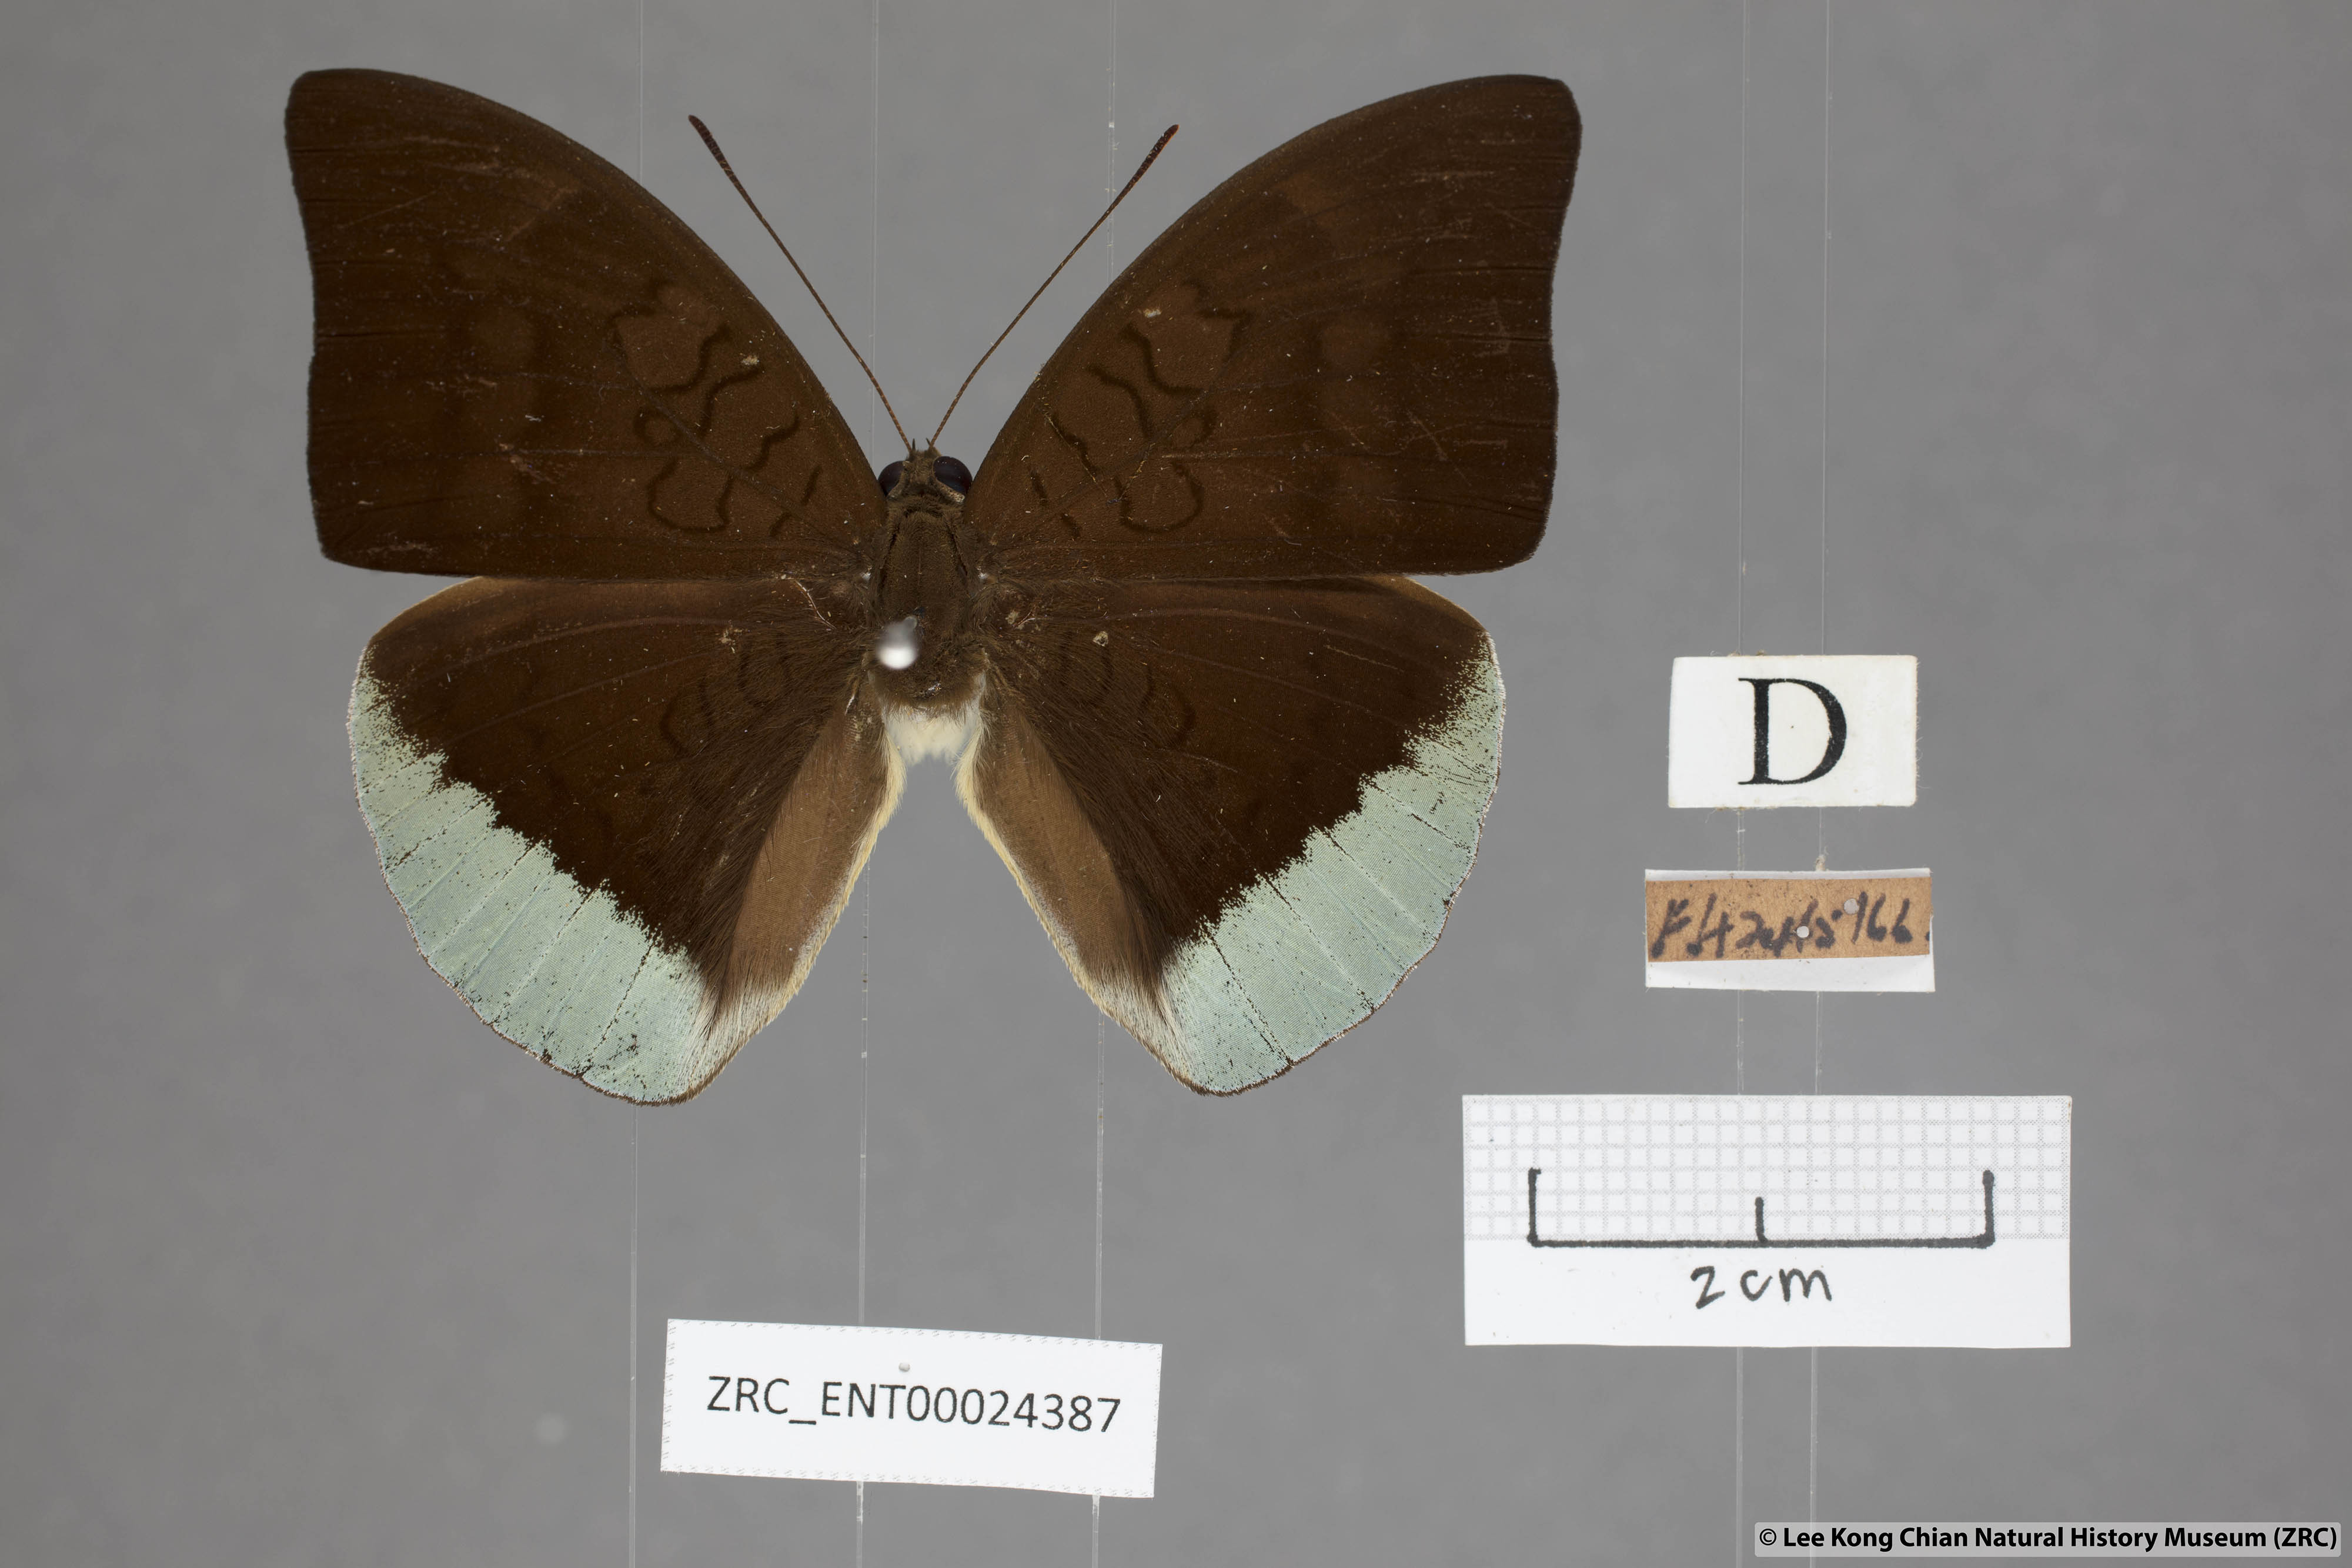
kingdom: Animalia
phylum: Arthropoda
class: Insecta
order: Lepidoptera
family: Nymphalidae
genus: Tanaecia
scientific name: Tanaecia julii
